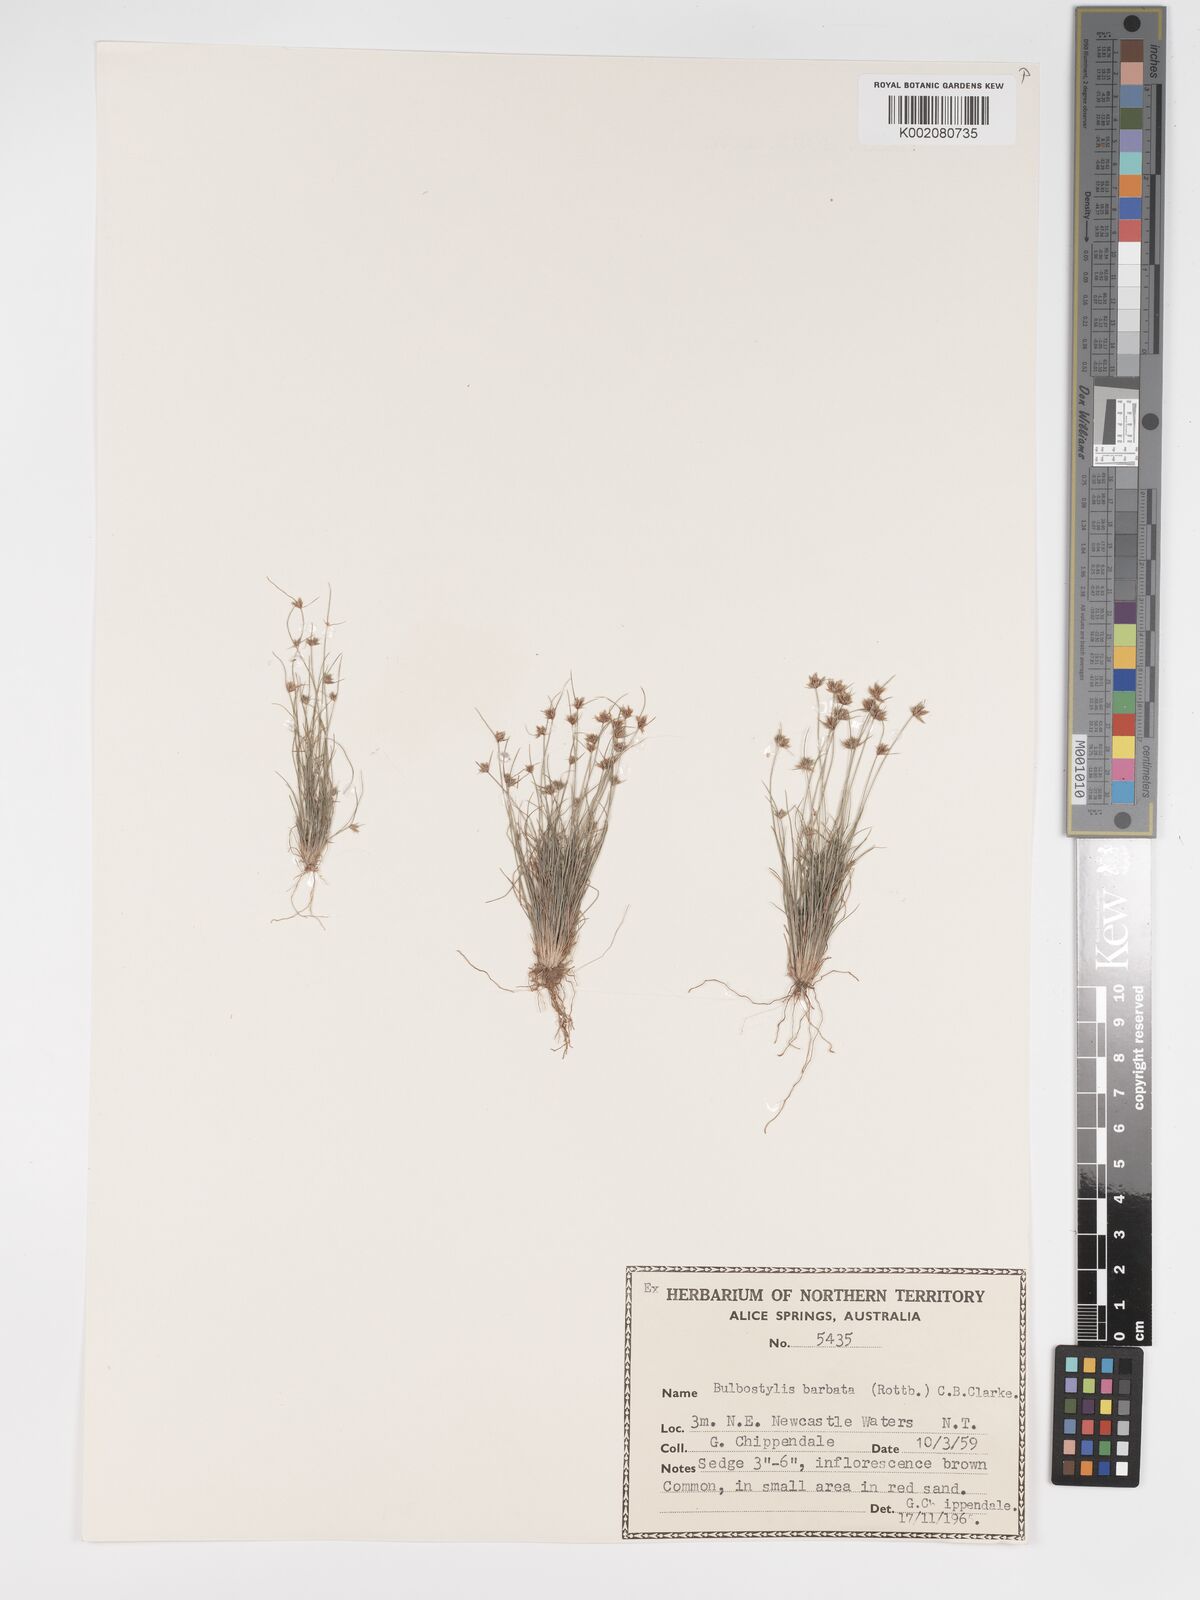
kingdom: Plantae
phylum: Tracheophyta
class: Liliopsida
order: Poales
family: Cyperaceae
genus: Bulbostylis
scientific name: Bulbostylis barbata
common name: Watergrass
